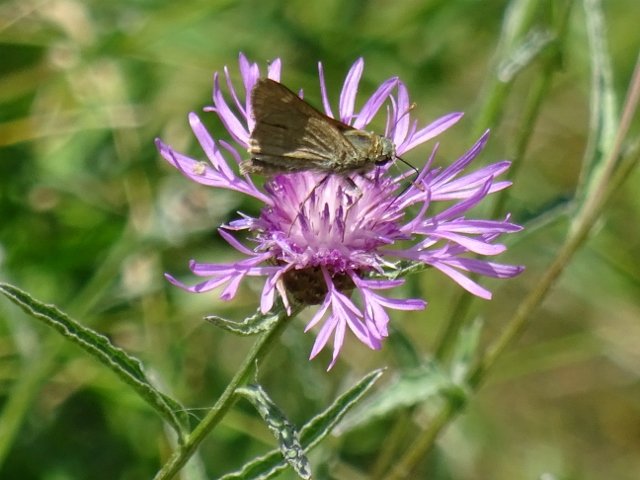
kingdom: Animalia
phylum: Arthropoda
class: Insecta
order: Lepidoptera
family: Hesperiidae
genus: Polites
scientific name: Polites
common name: Crossline Skipper
